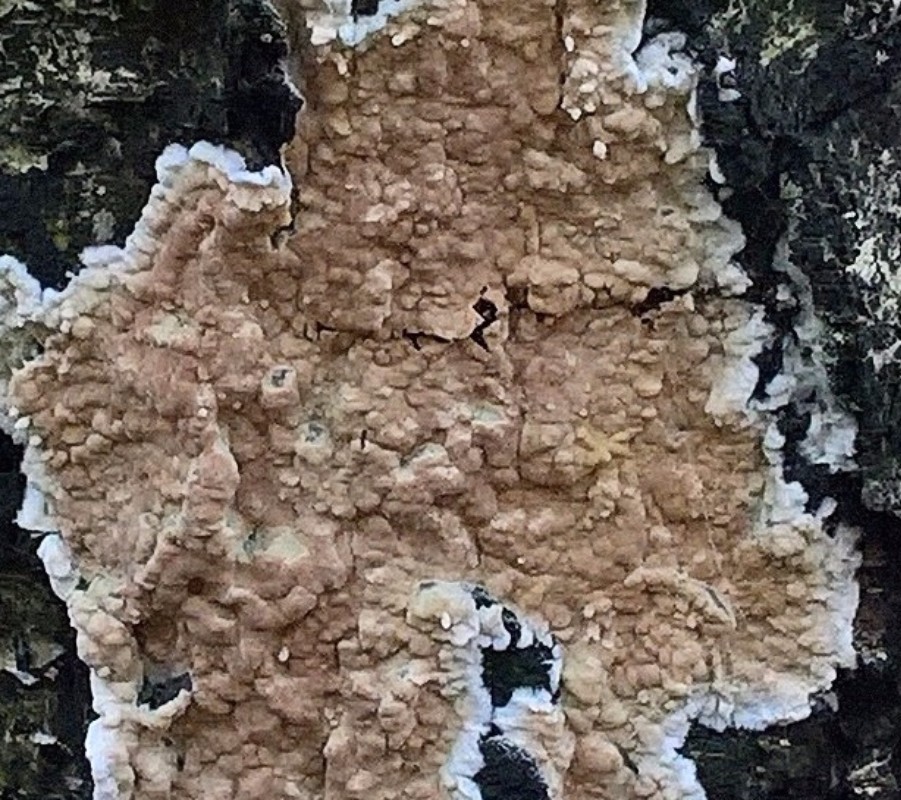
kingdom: Fungi
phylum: Basidiomycota
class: Agaricomycetes
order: Agaricales
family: Physalacriaceae
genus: Cylindrobasidium
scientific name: Cylindrobasidium evolvens
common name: sprækkehinde
